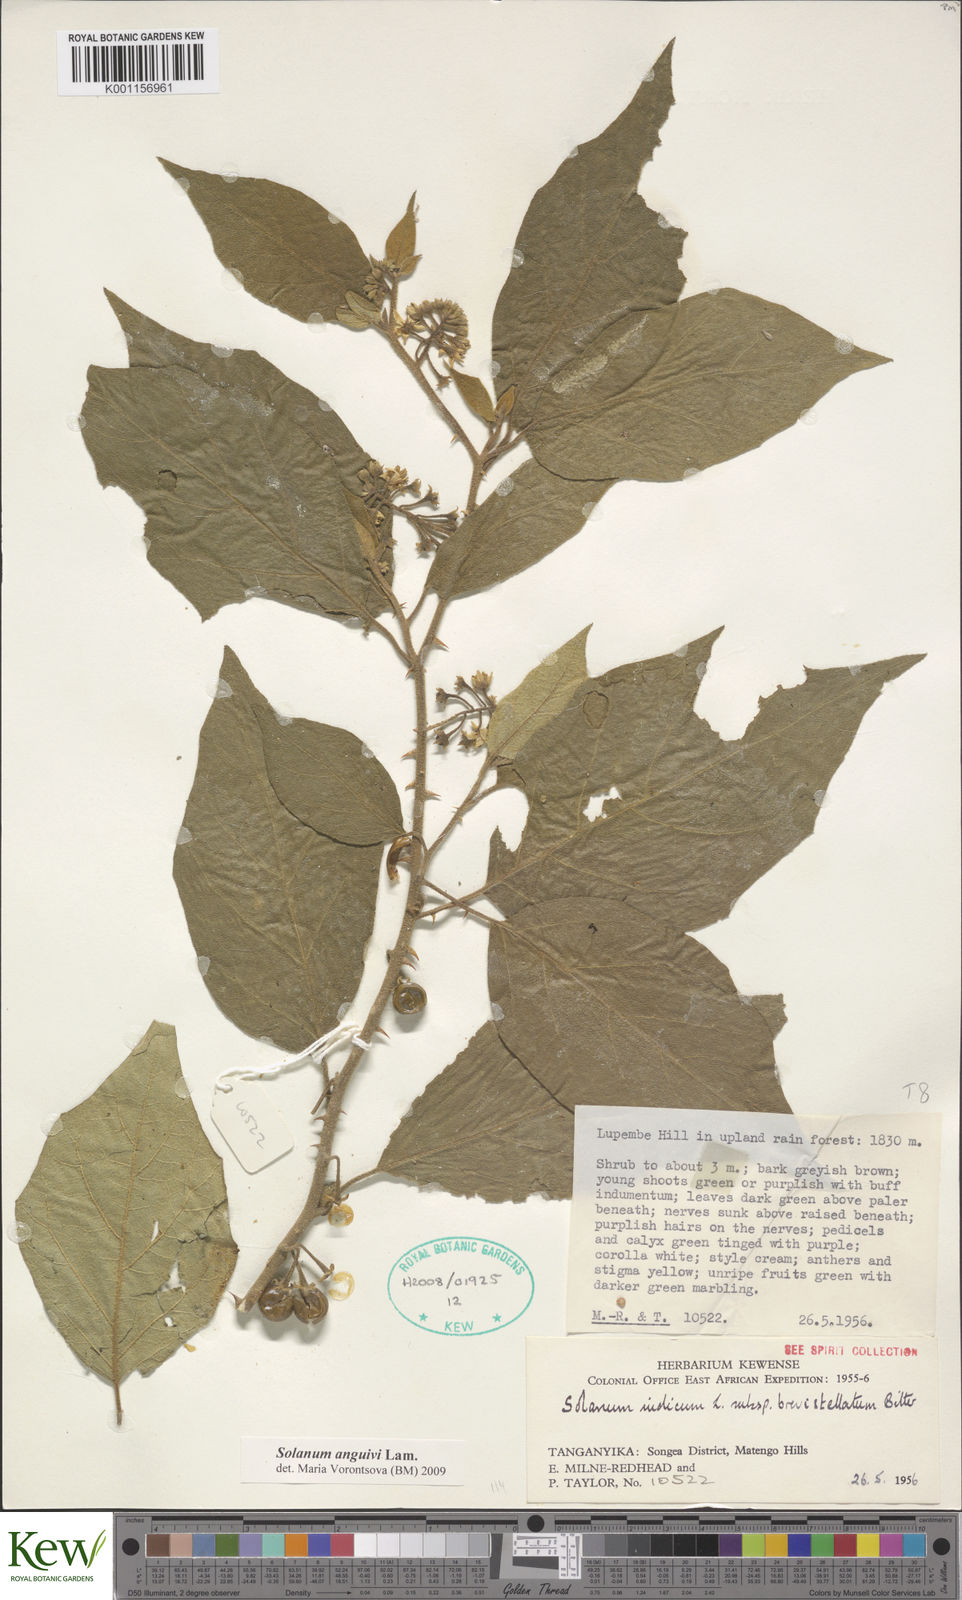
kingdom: Plantae
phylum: Tracheophyta
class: Magnoliopsida
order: Solanales
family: Solanaceae
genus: Solanum
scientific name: Solanum anguivi
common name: Forest bitterberry
